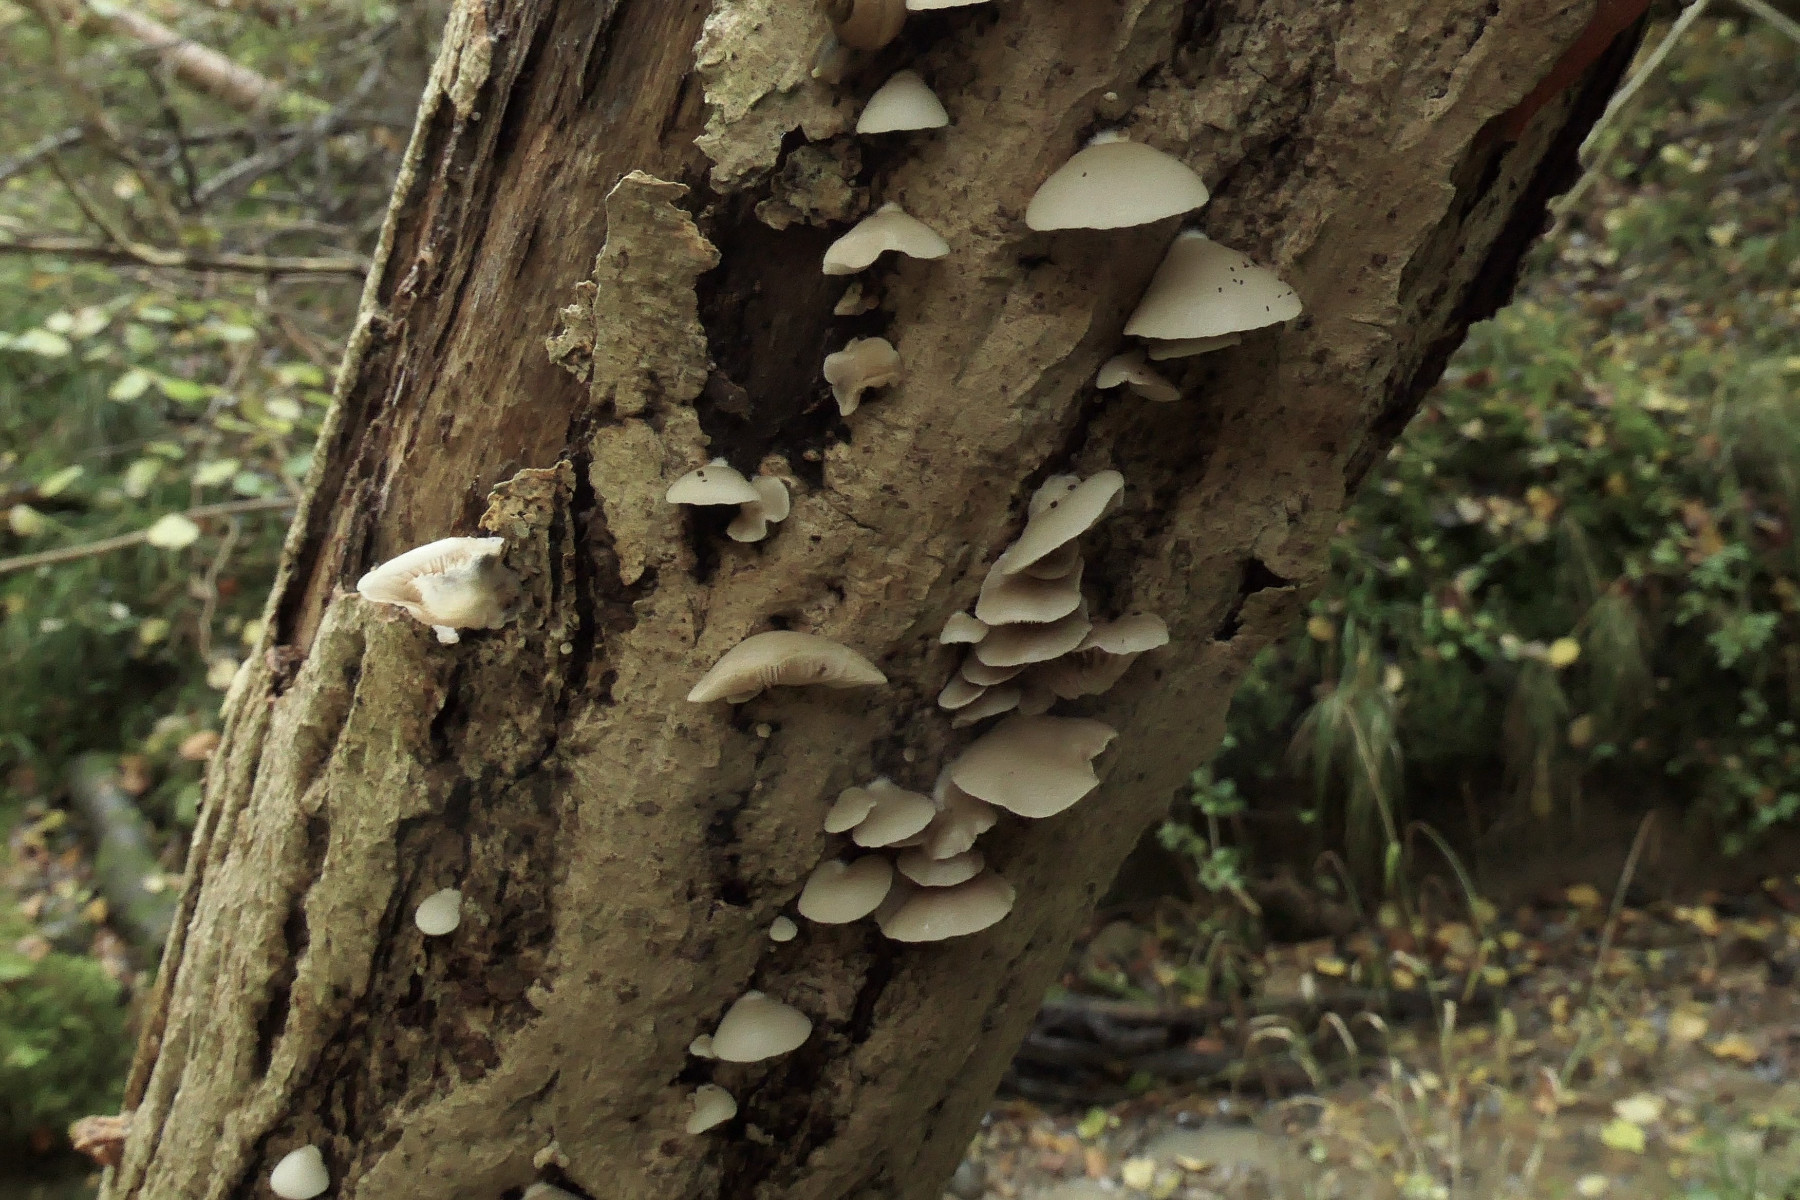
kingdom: Fungi
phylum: Basidiomycota
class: Agaricomycetes
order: Agaricales
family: Crepidotaceae
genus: Crepidotus
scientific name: Crepidotus mollis
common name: blød muslingesvamp
